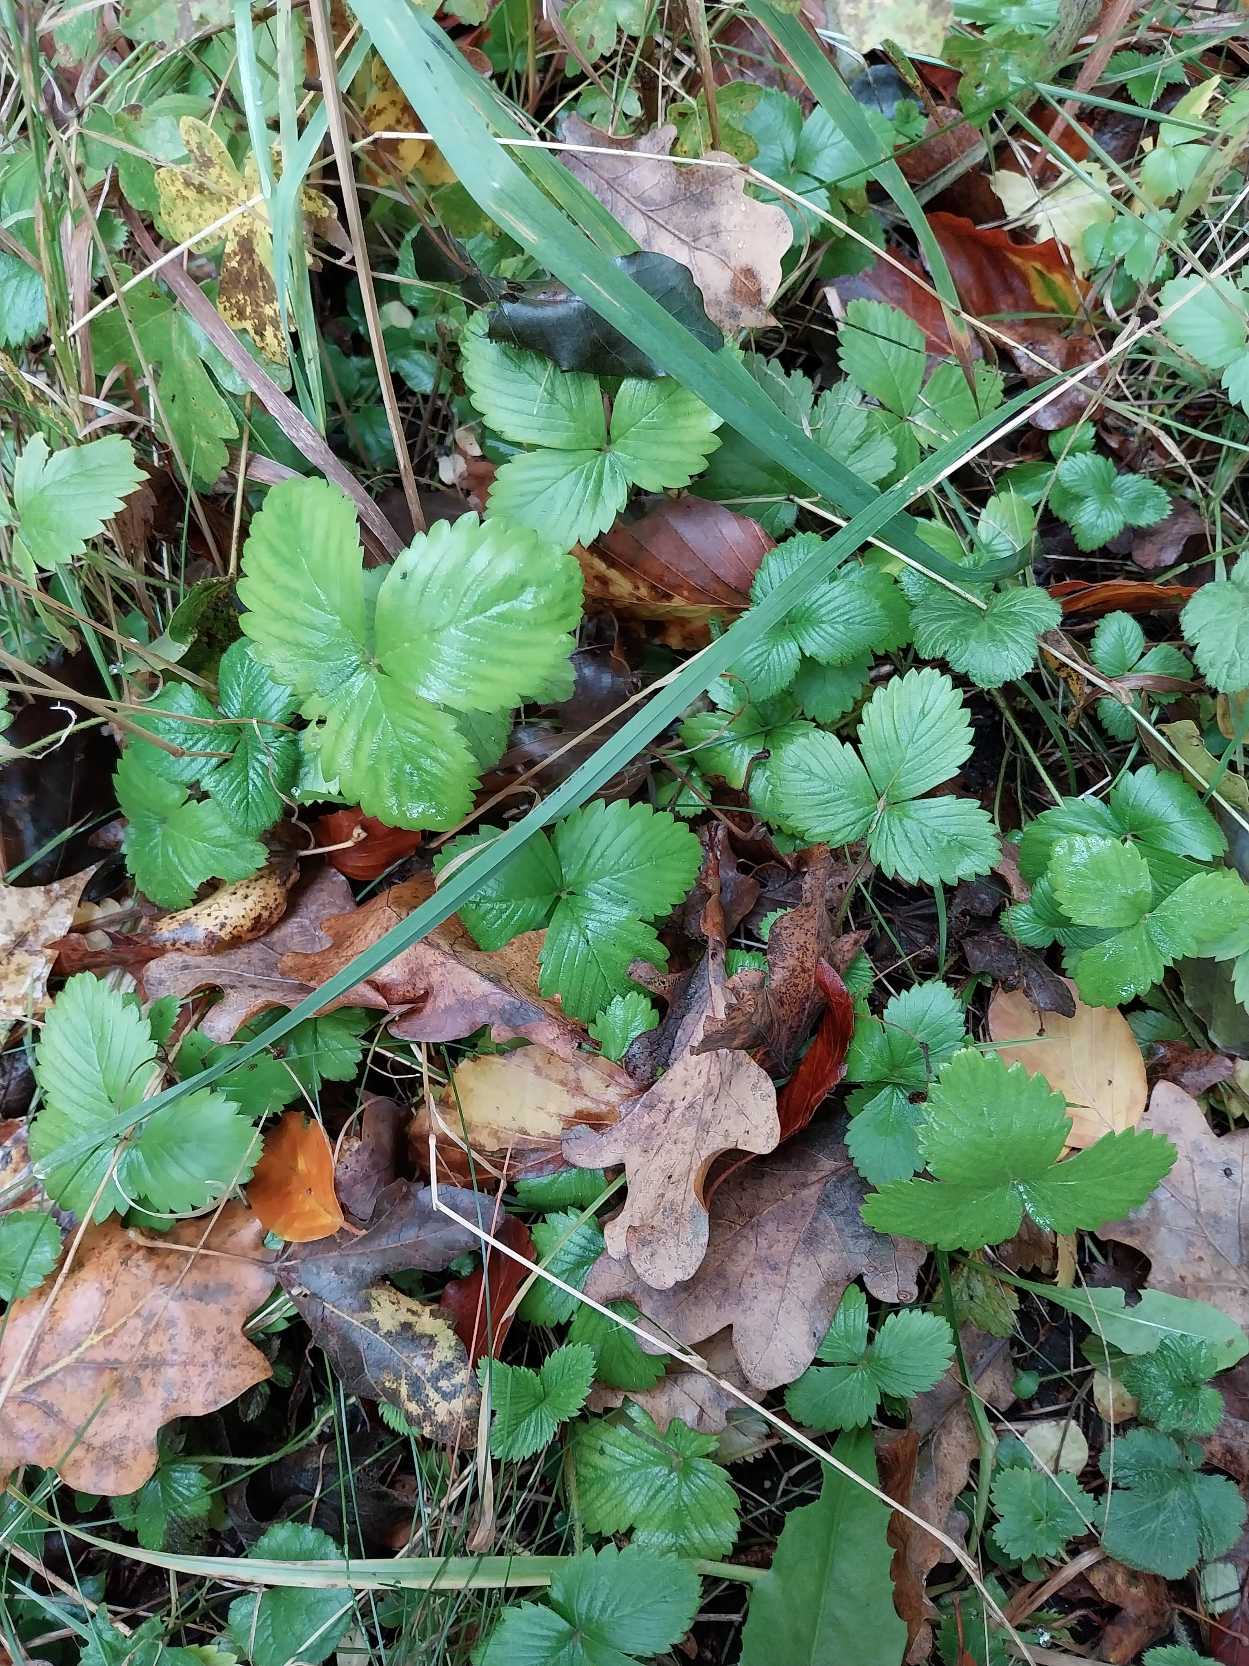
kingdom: Plantae
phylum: Tracheophyta
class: Magnoliopsida
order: Rosales
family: Rosaceae
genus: Fragaria
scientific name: Fragaria vesca
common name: Skov-jordbær
